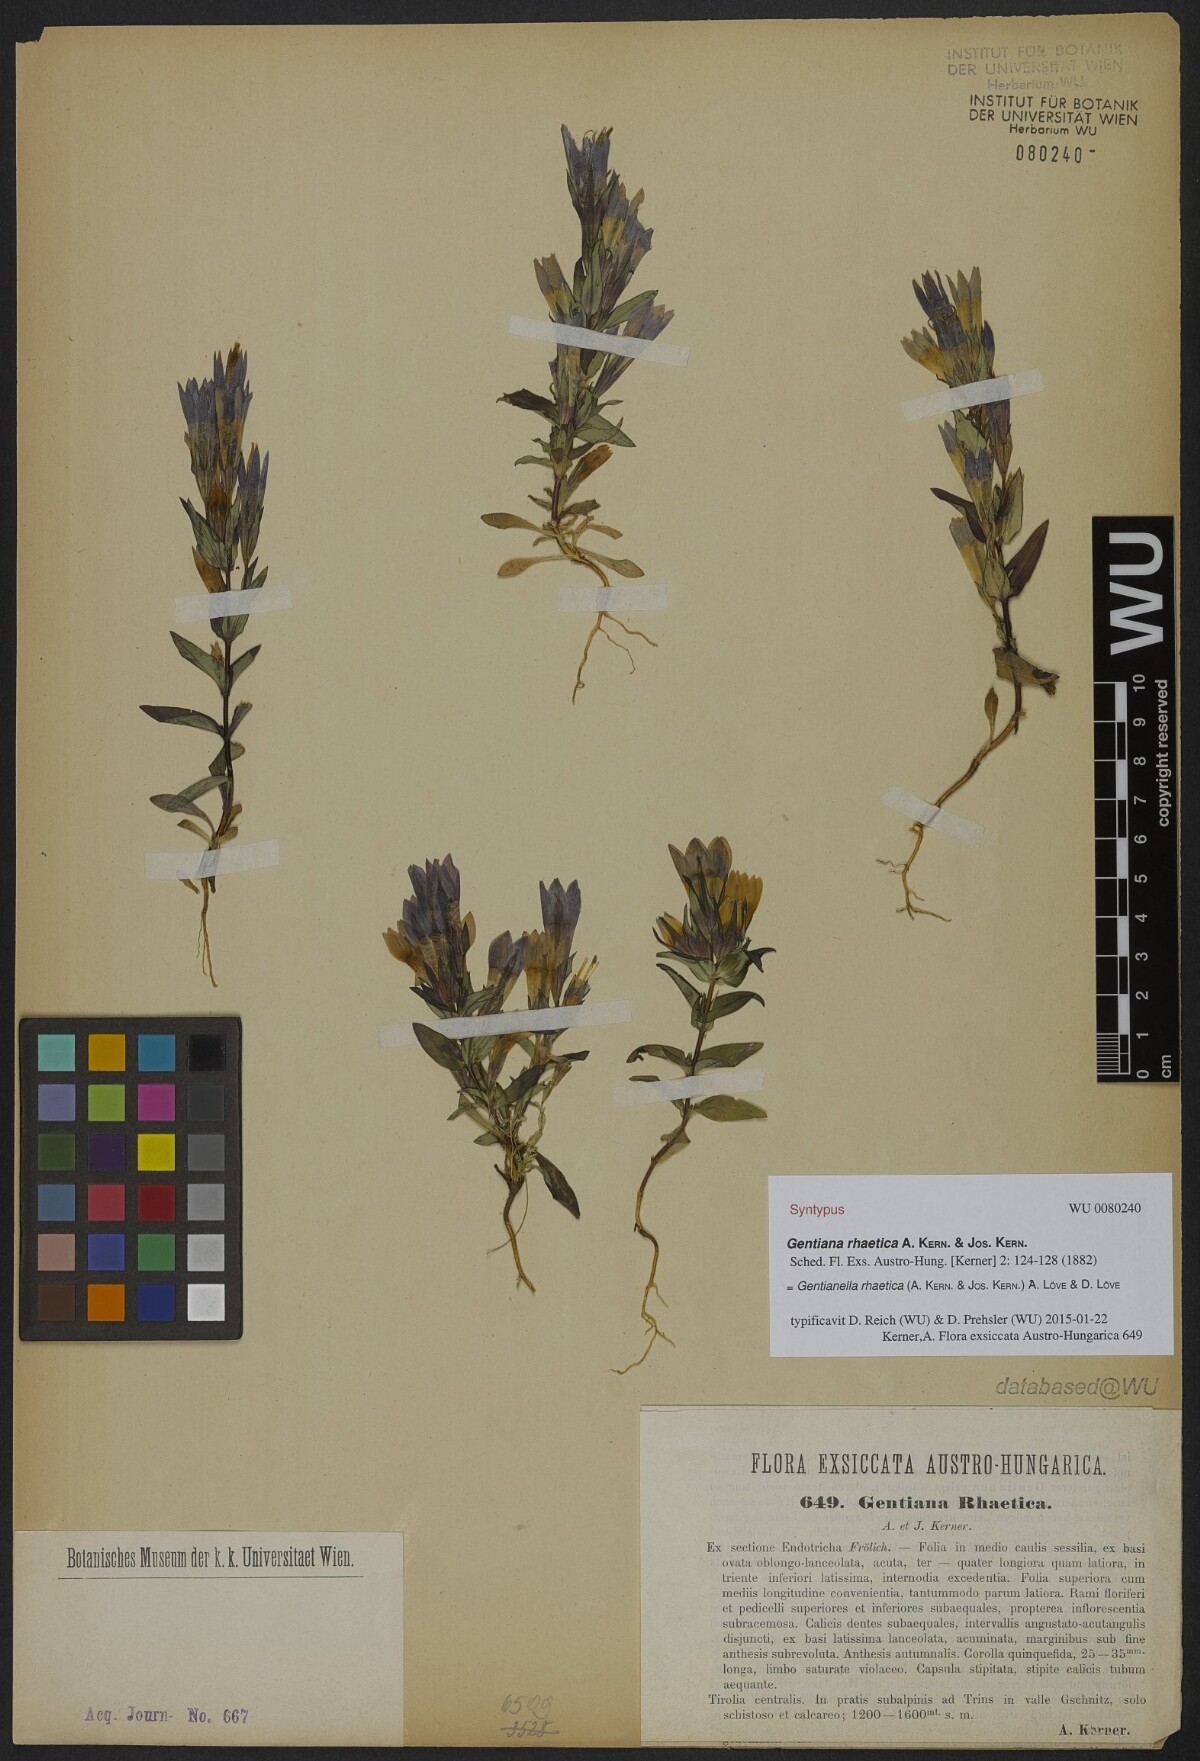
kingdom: Plantae
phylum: Tracheophyta
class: Magnoliopsida
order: Gentianales
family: Gentianaceae
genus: Gentianella
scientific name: Gentianella rhaetica
